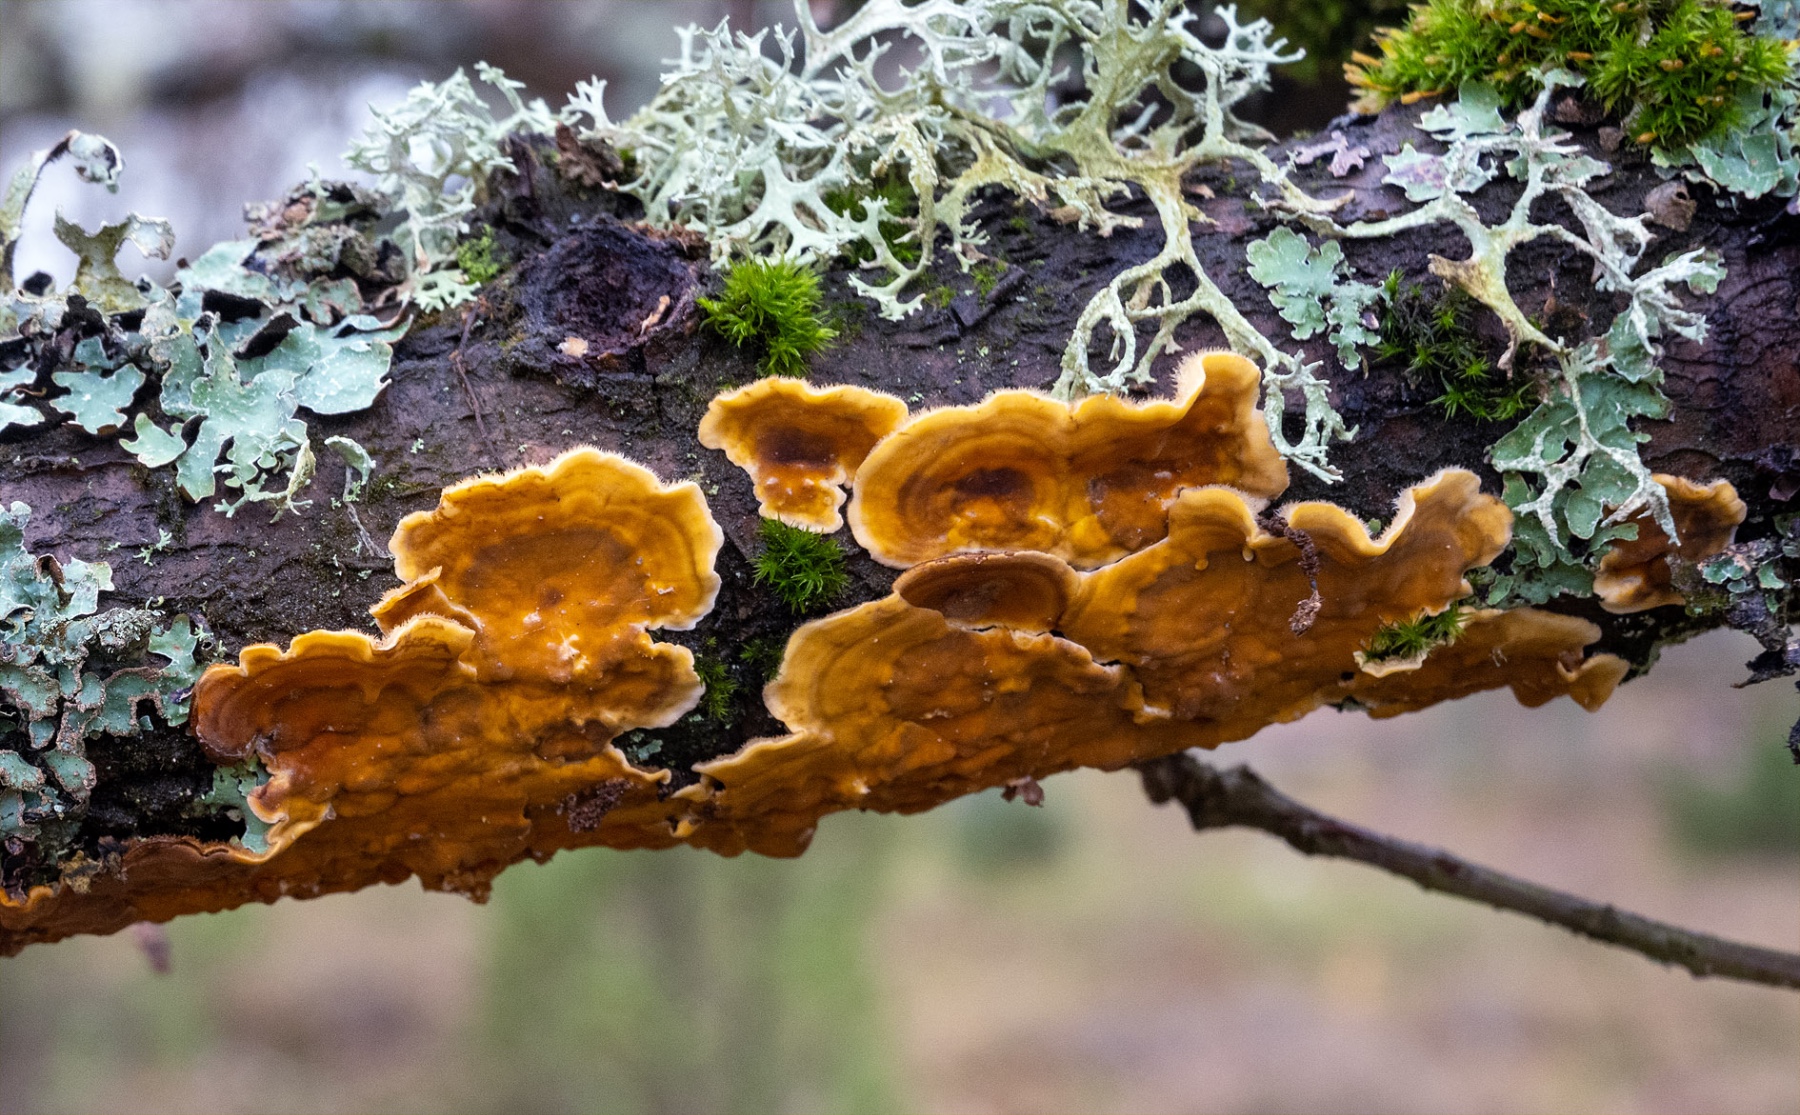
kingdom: Fungi
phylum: Basidiomycota
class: Agaricomycetes
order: Russulales
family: Stereaceae
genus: Stereum
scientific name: Stereum hirsutum
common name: håret lædersvamp
